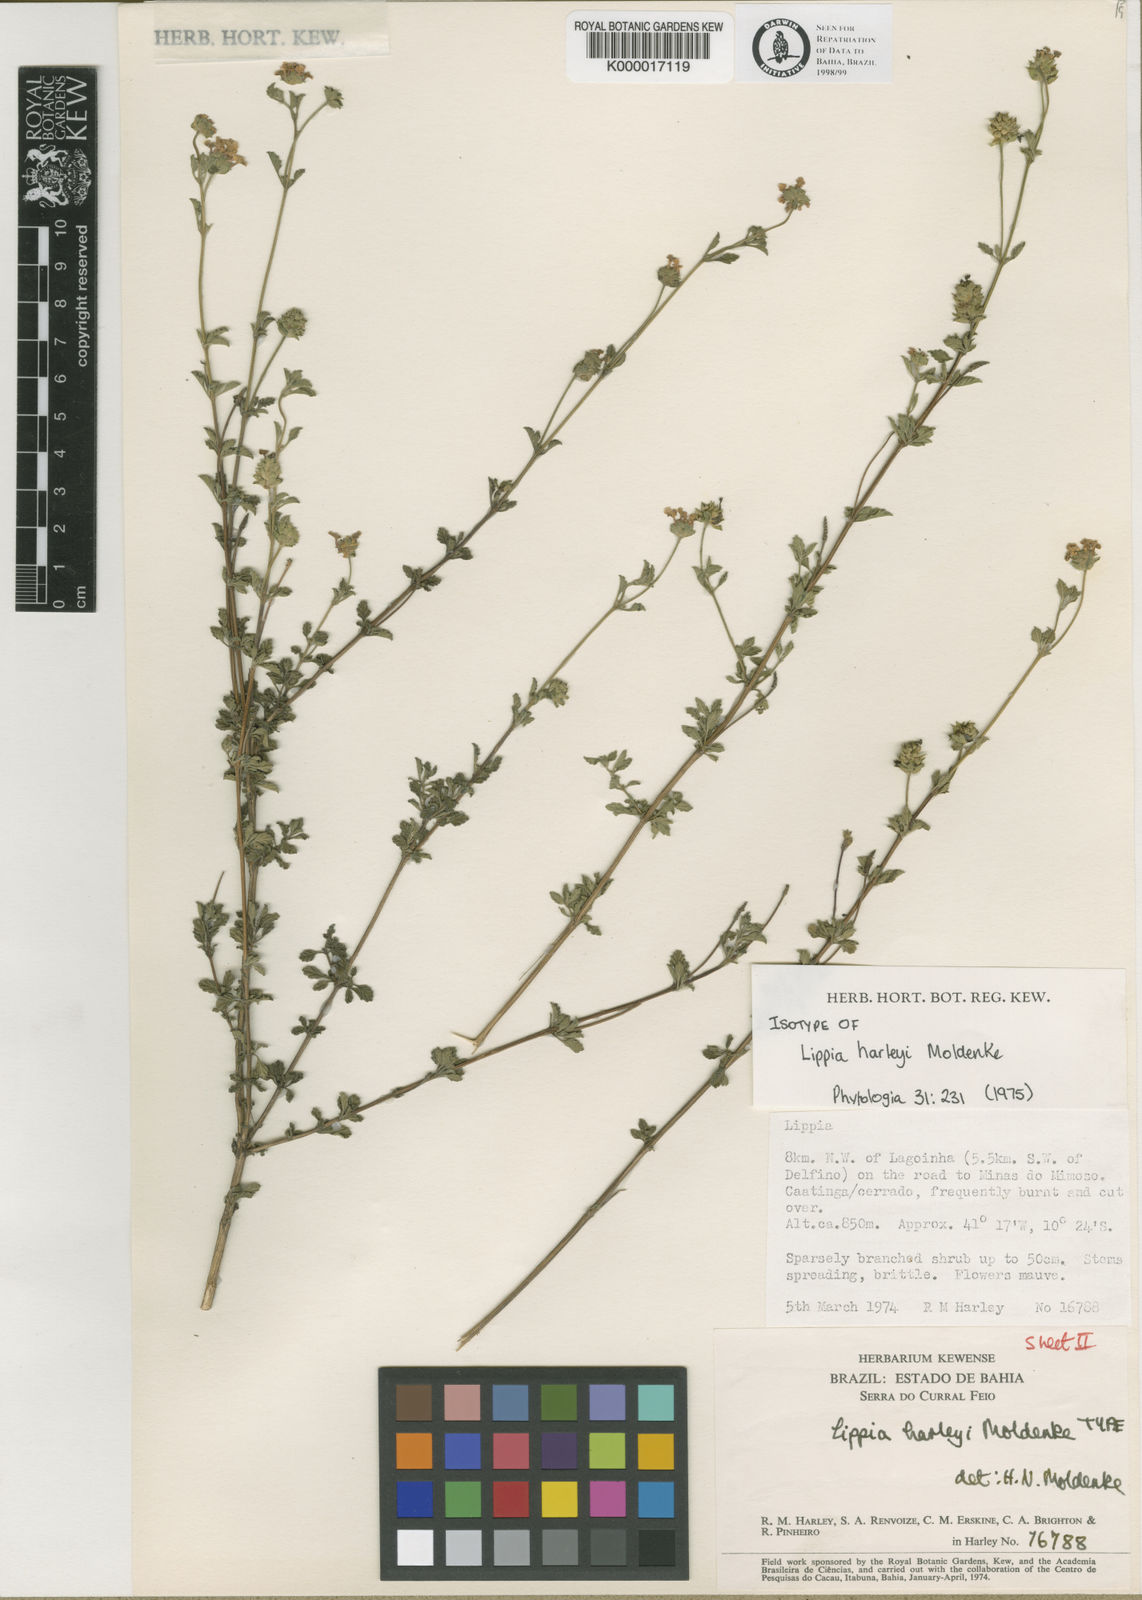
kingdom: Plantae
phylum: Tracheophyta
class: Magnoliopsida
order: Lamiales
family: Verbenaceae
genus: Lippia
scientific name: Lippia harleyi
